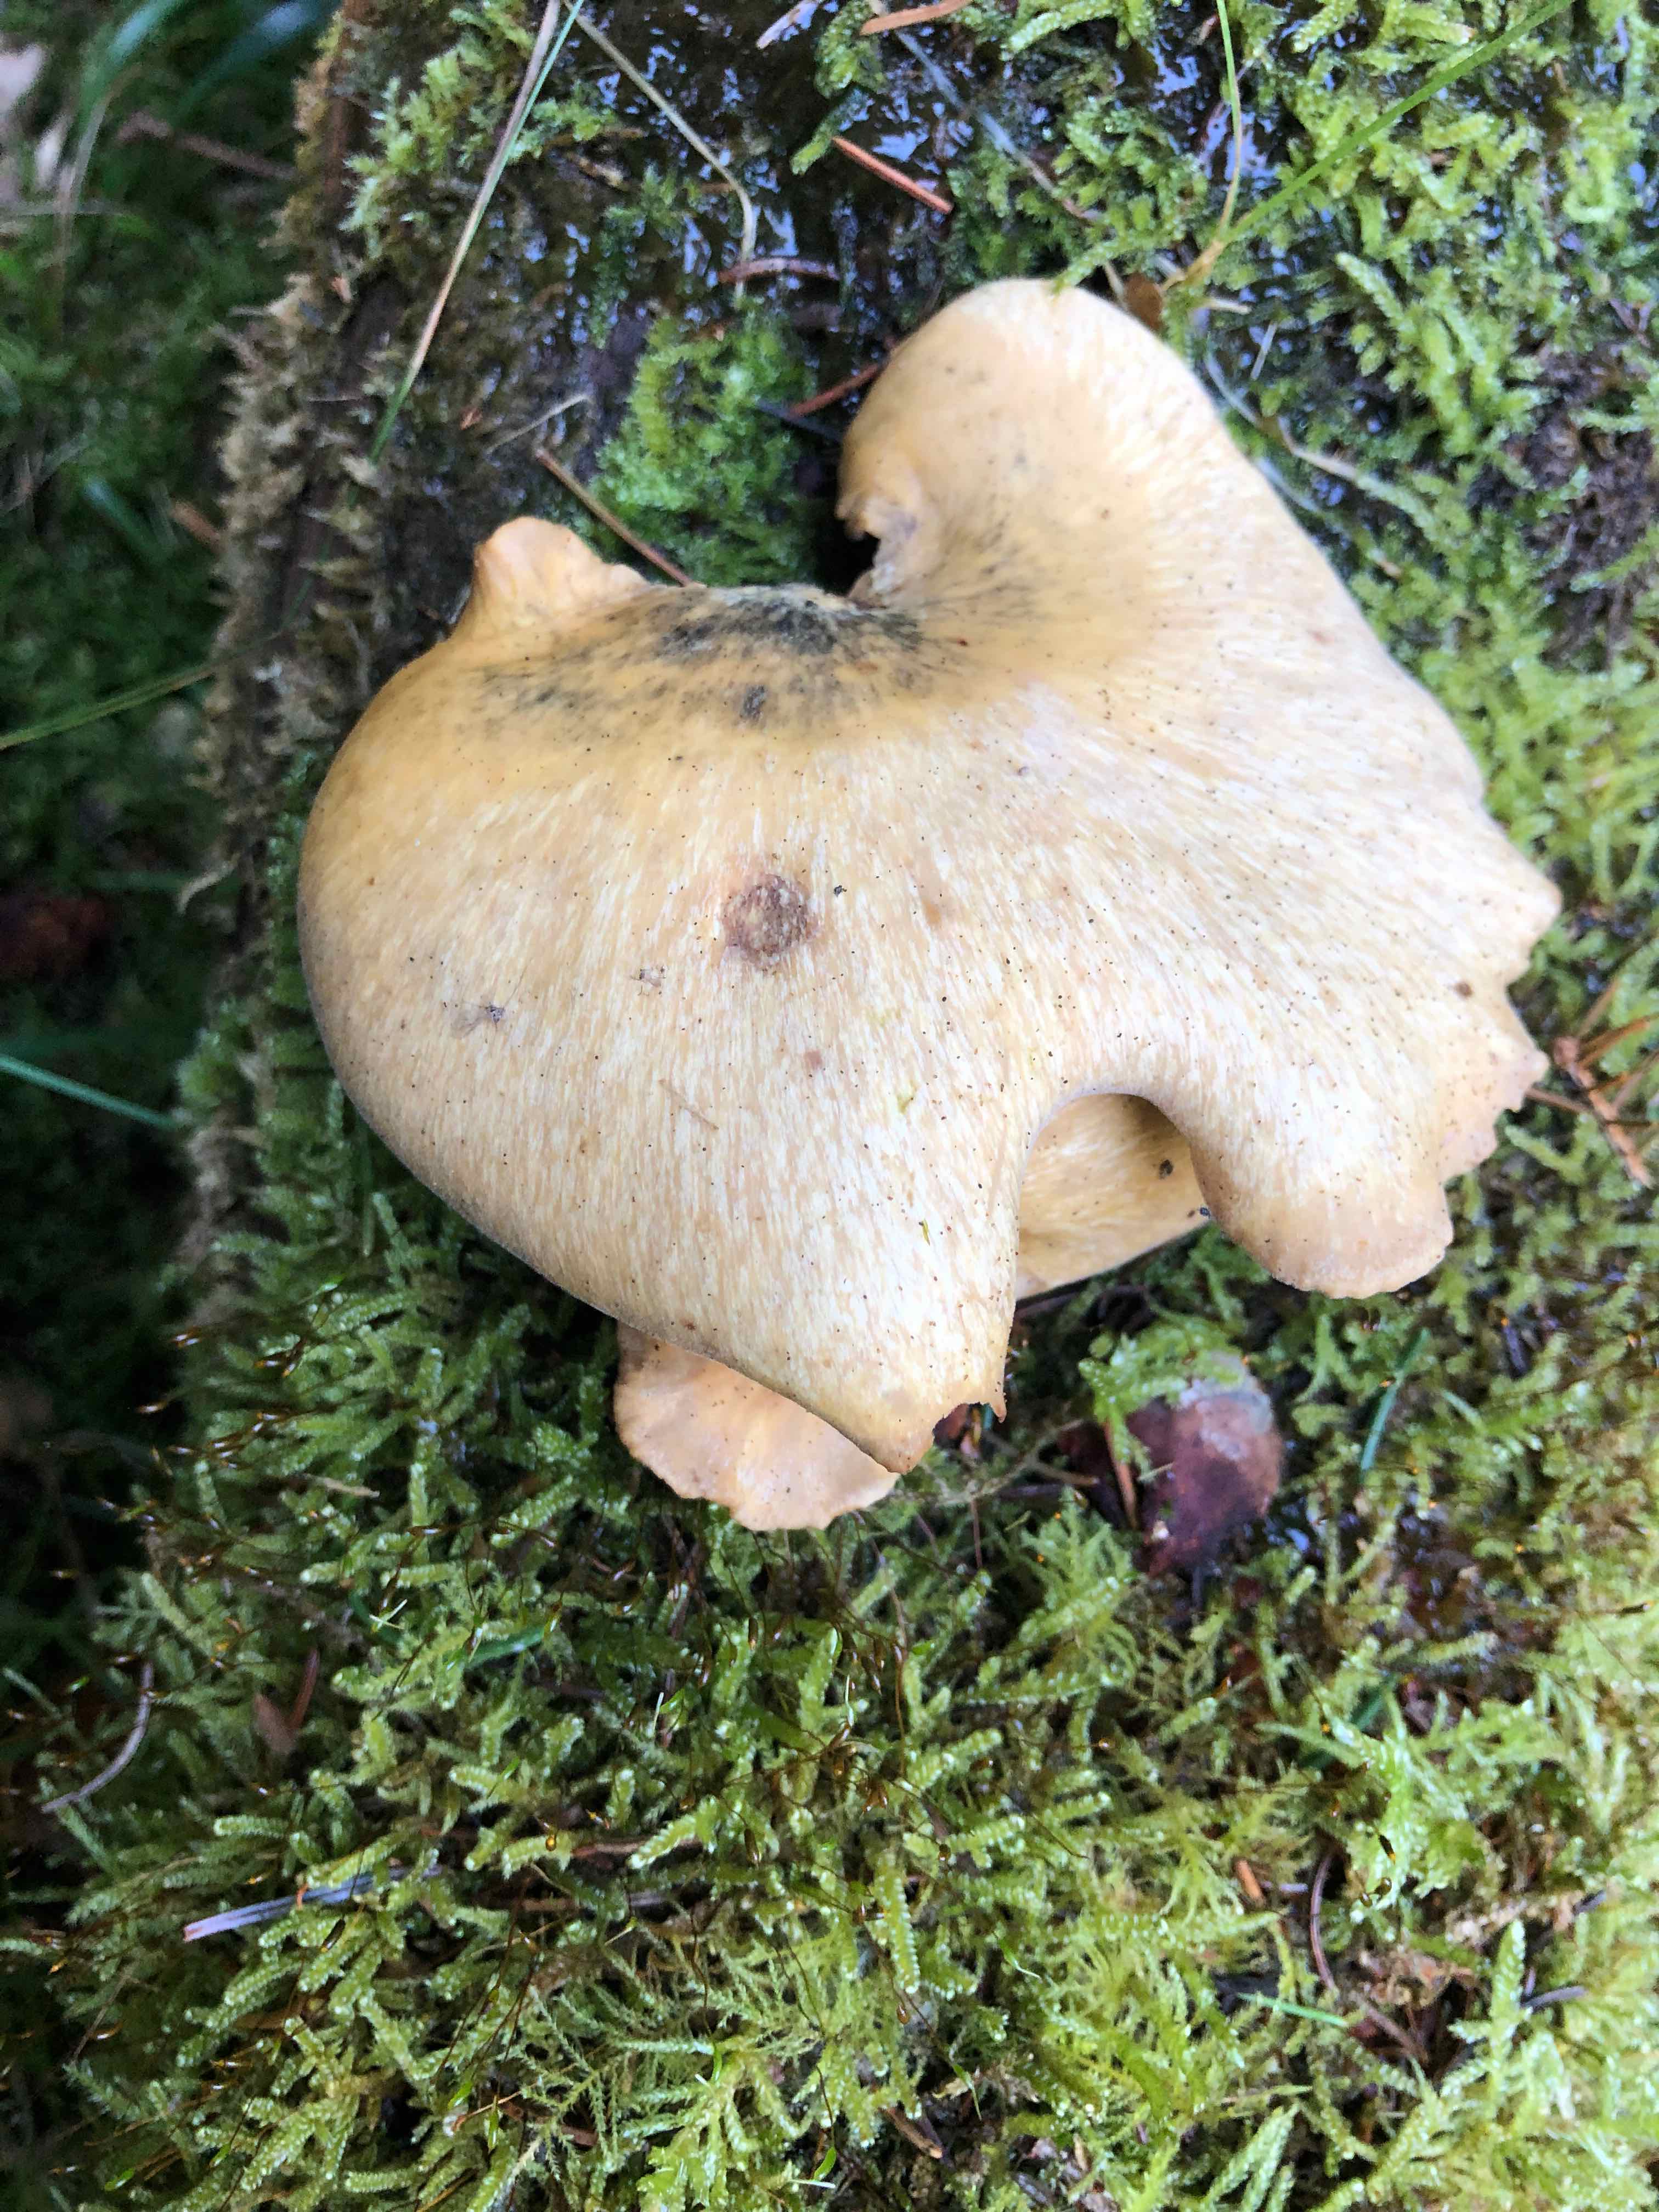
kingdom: Fungi
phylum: Basidiomycota
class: Agaricomycetes
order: Polyporales
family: Polyporaceae
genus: Cerioporus
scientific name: Cerioporus varius
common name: foranderlig stilkporesvamp
